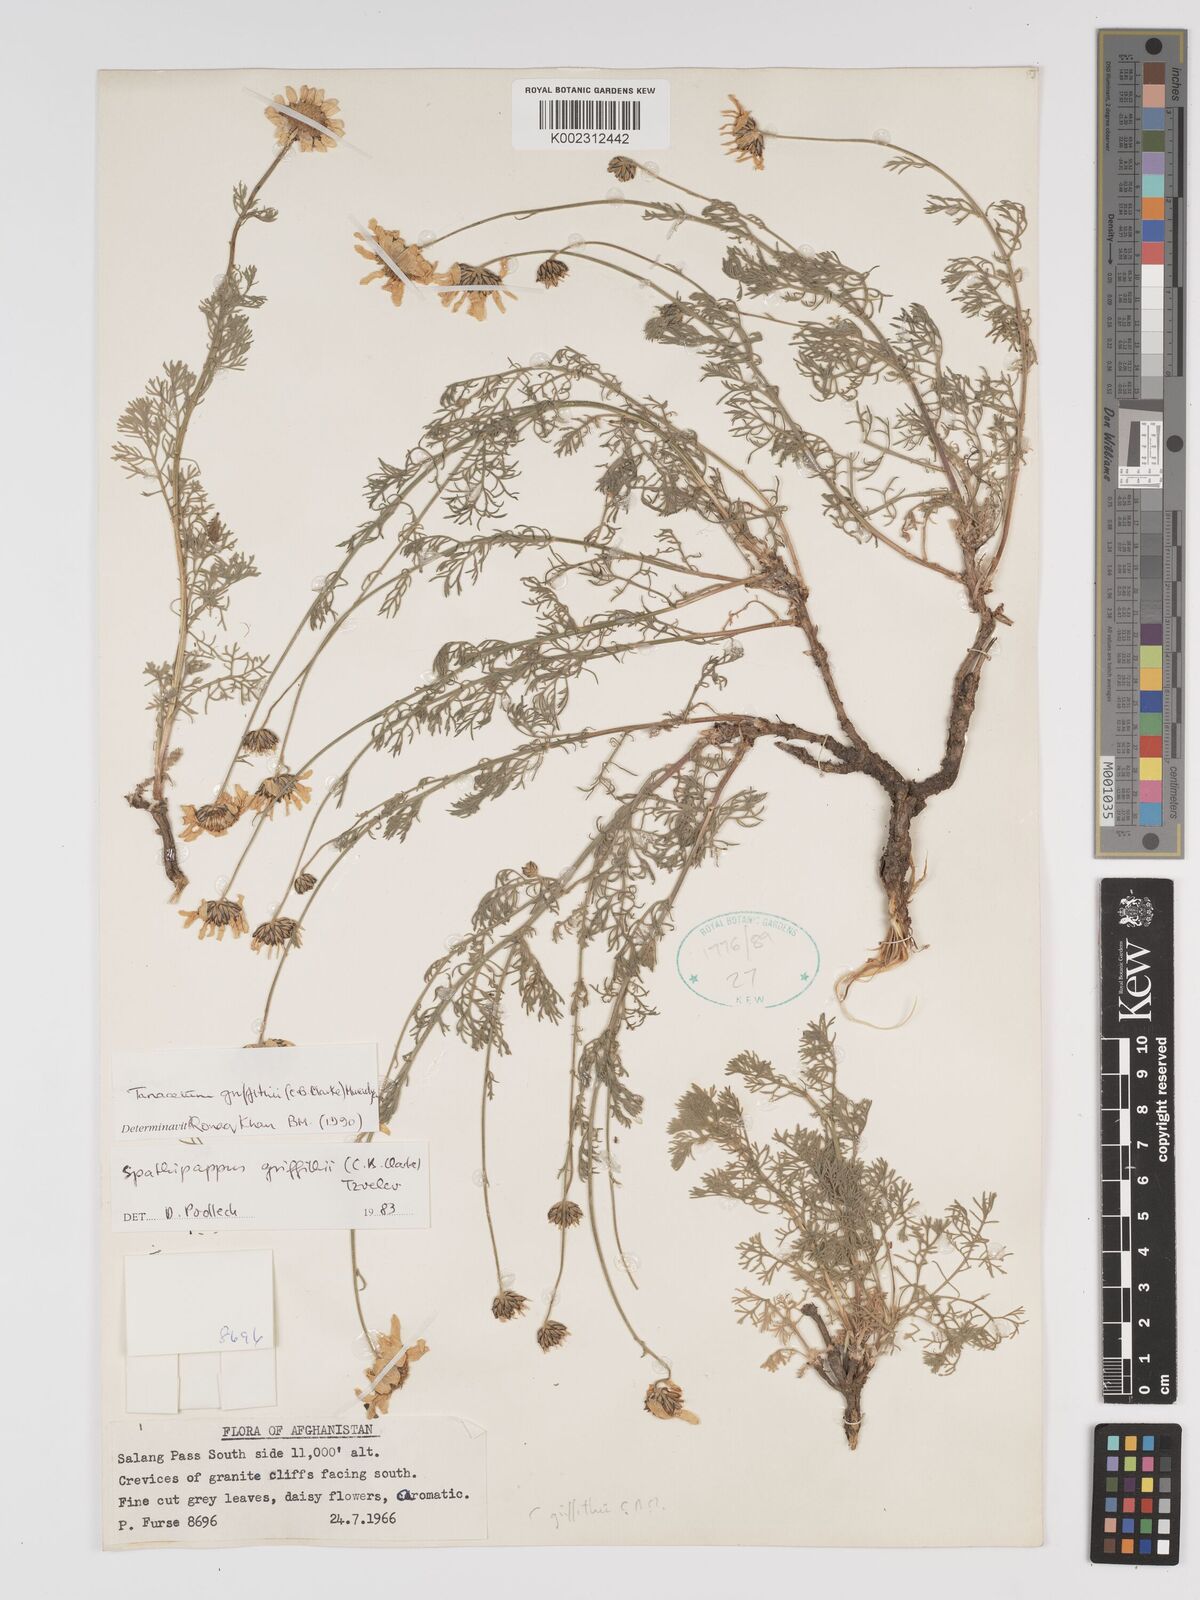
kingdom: Plantae
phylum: Tracheophyta
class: Magnoliopsida
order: Asterales
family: Asteraceae
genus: Tanacetum
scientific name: Tanacetum griffithii
